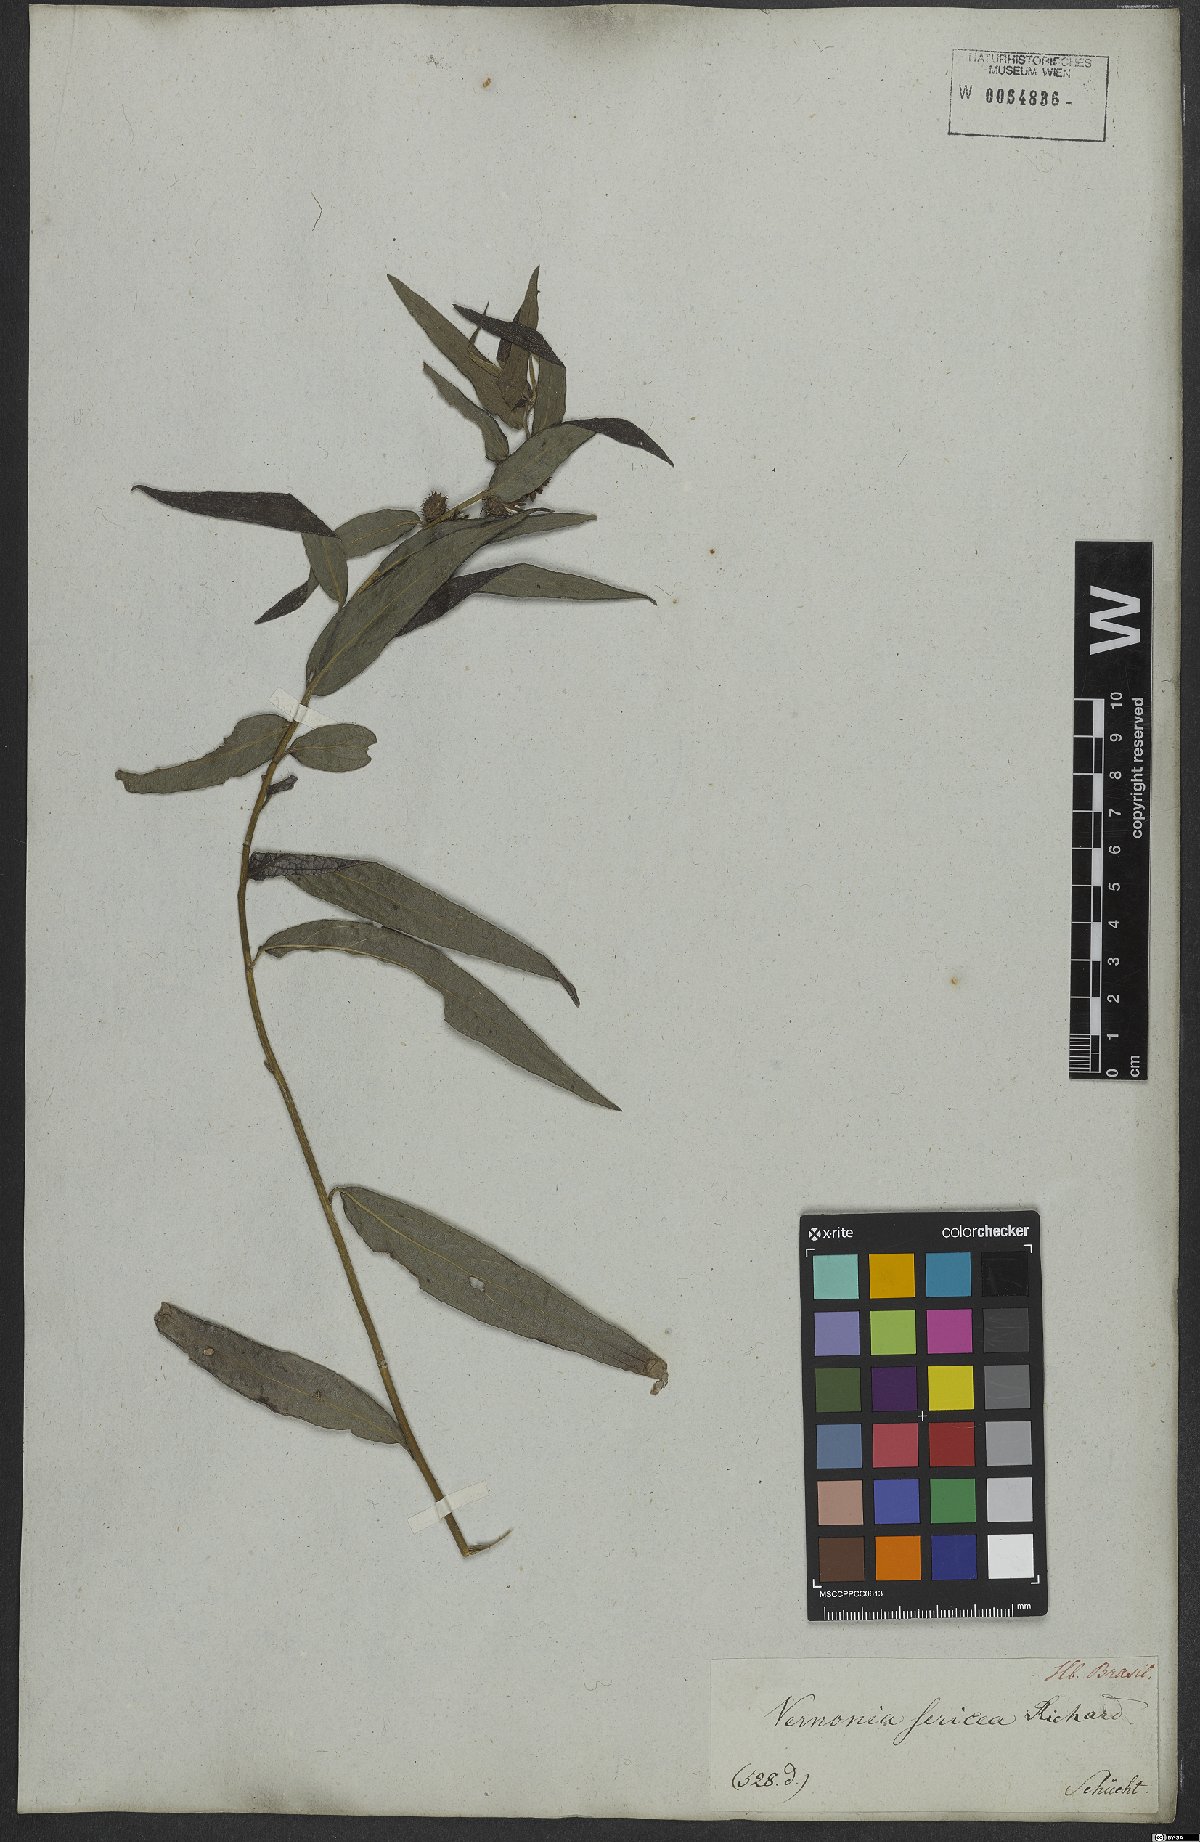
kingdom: Plantae
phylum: Tracheophyta
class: Magnoliopsida
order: Asterales
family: Asteraceae
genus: Lepidaploa
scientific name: Lepidaploa sericea
